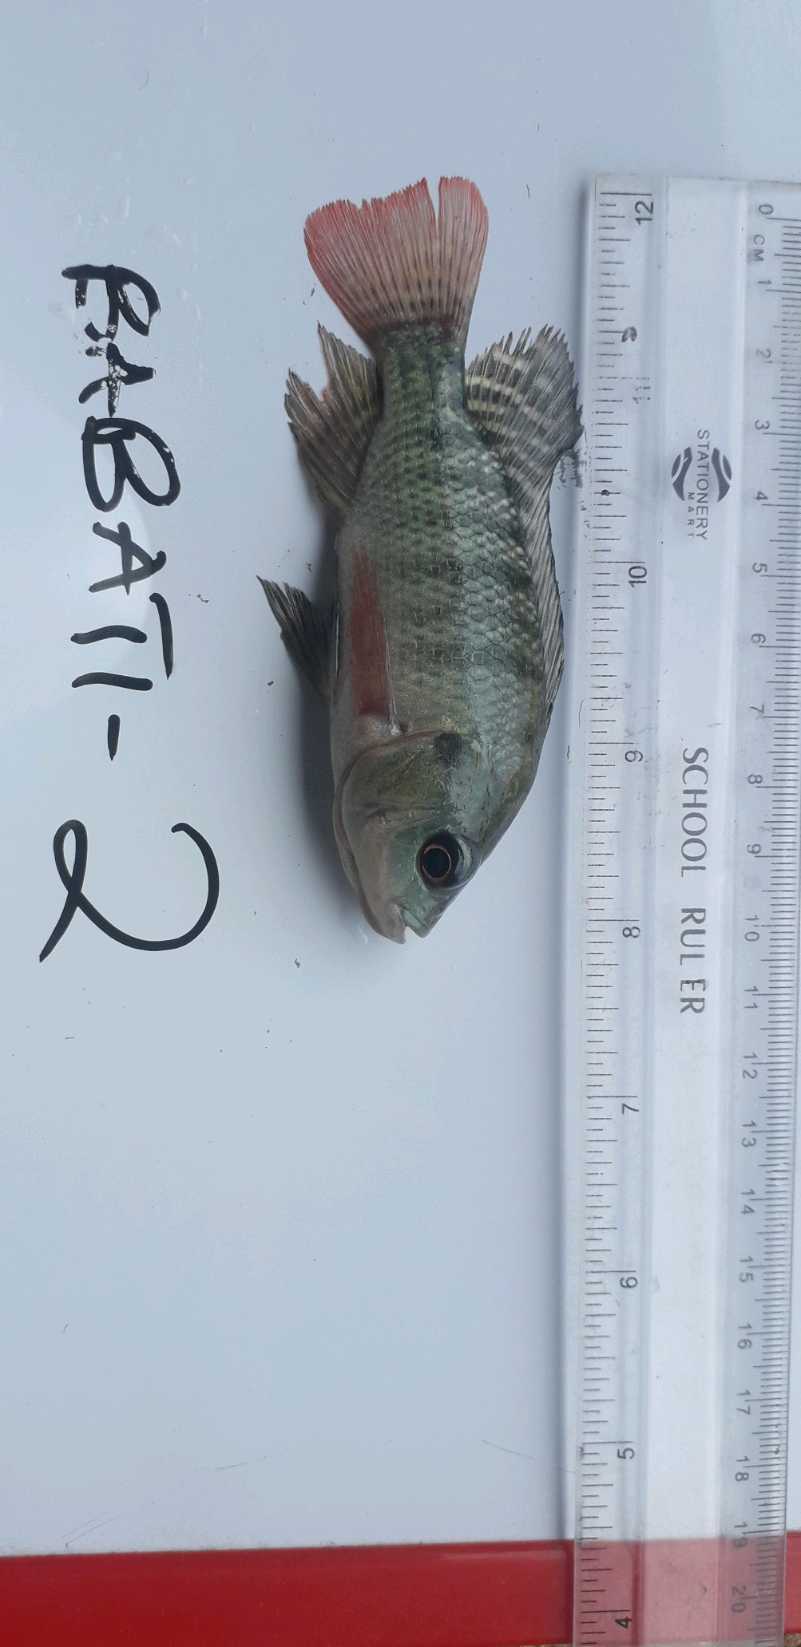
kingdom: Animalia
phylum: Chordata
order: Perciformes
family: Cichlidae
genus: Oreochromis
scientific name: Oreochromis niloticus
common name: Nile tilapia
